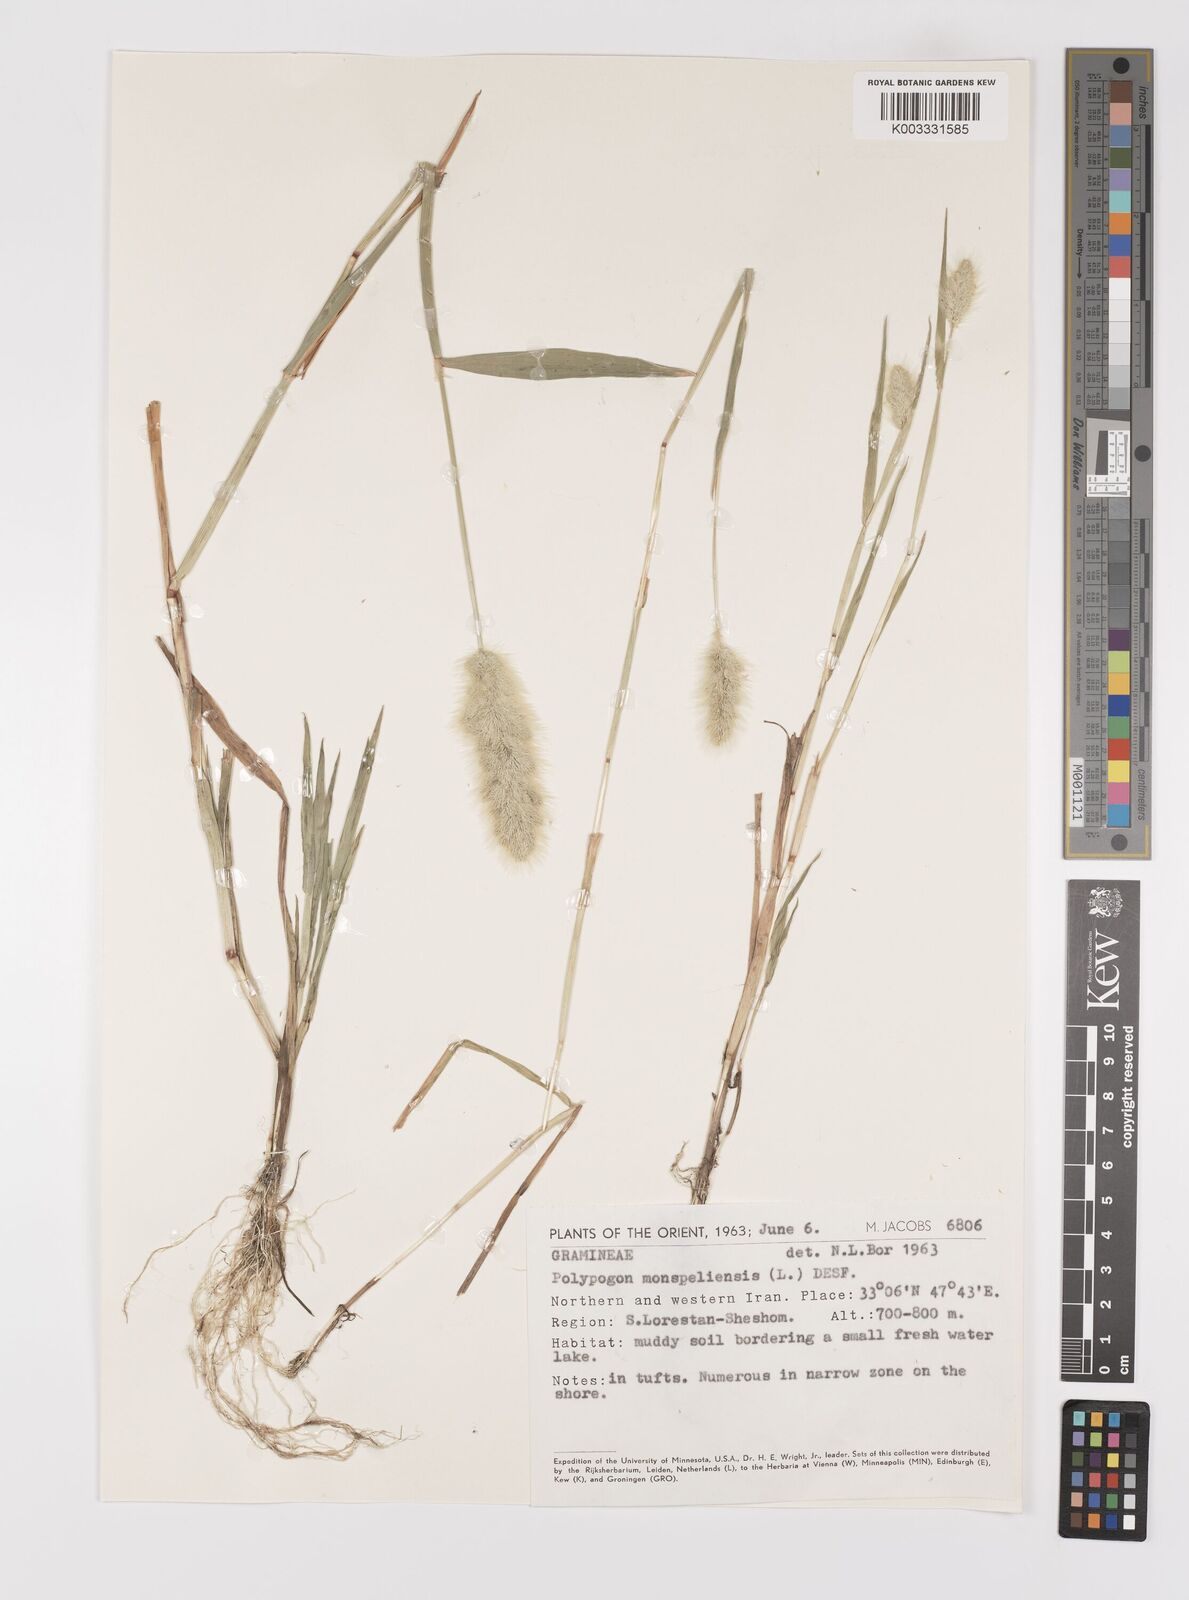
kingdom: Plantae
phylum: Tracheophyta
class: Liliopsida
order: Poales
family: Poaceae
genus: Polypogon
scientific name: Polypogon monspeliensis
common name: Annual rabbitsfoot grass
